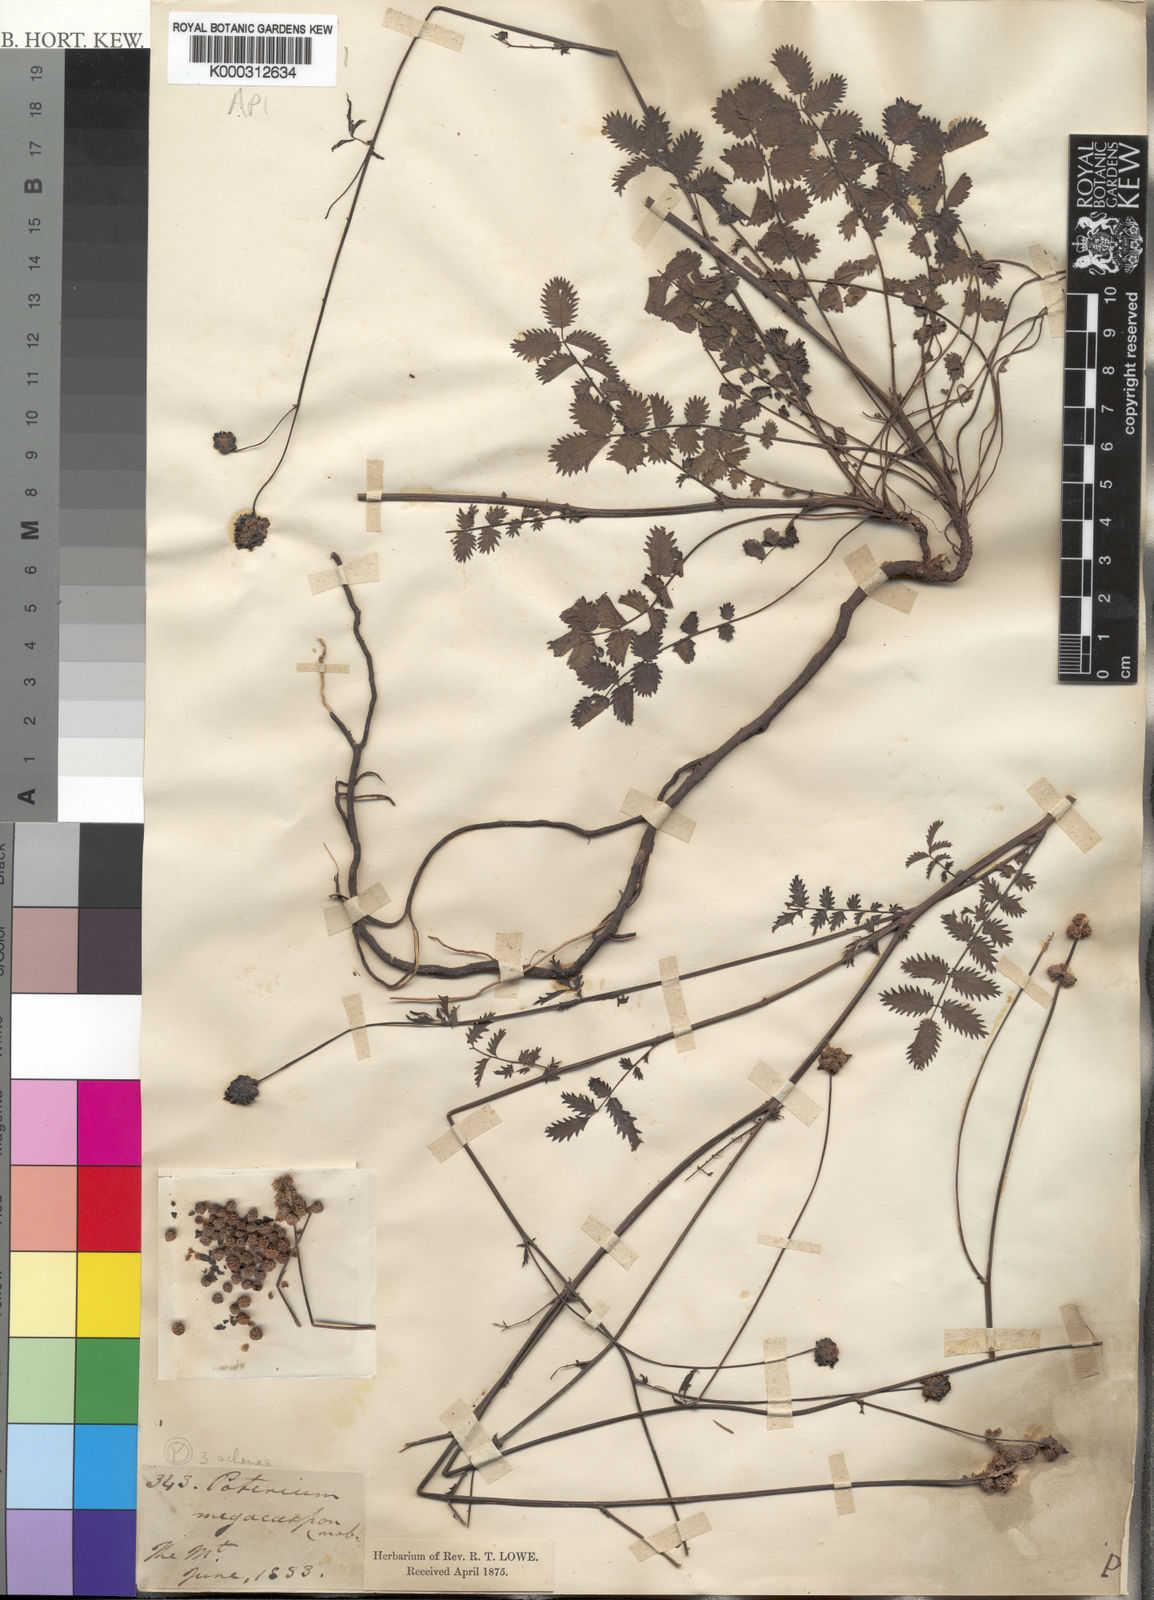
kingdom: Plantae
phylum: Tracheophyta
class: Magnoliopsida
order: Rosales
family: Rosaceae
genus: Poterium
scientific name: Poterium sanguisorba
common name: Salad burnet
